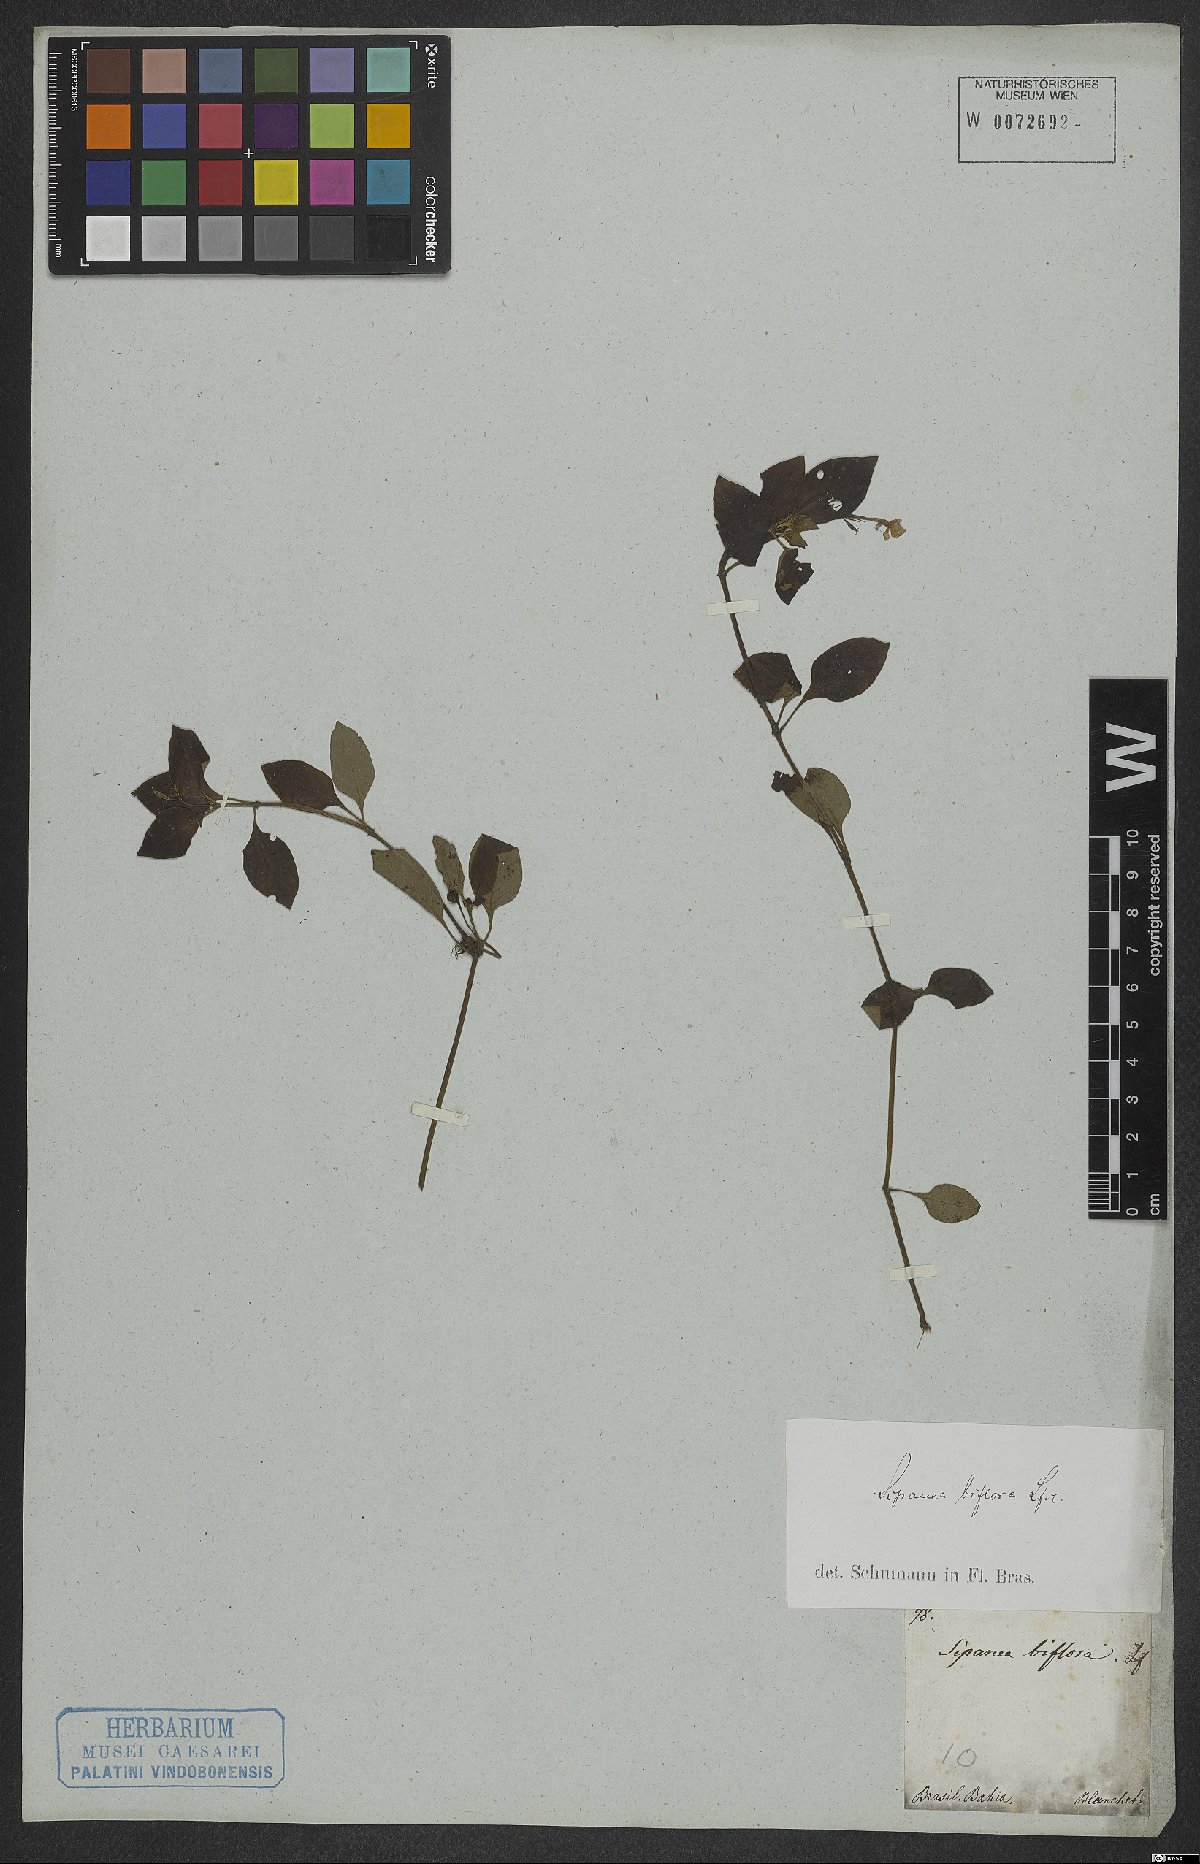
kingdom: Plantae
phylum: Tracheophyta
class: Magnoliopsida
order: Gentianales
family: Rubiaceae
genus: Sipanea
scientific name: Sipanea biflora
